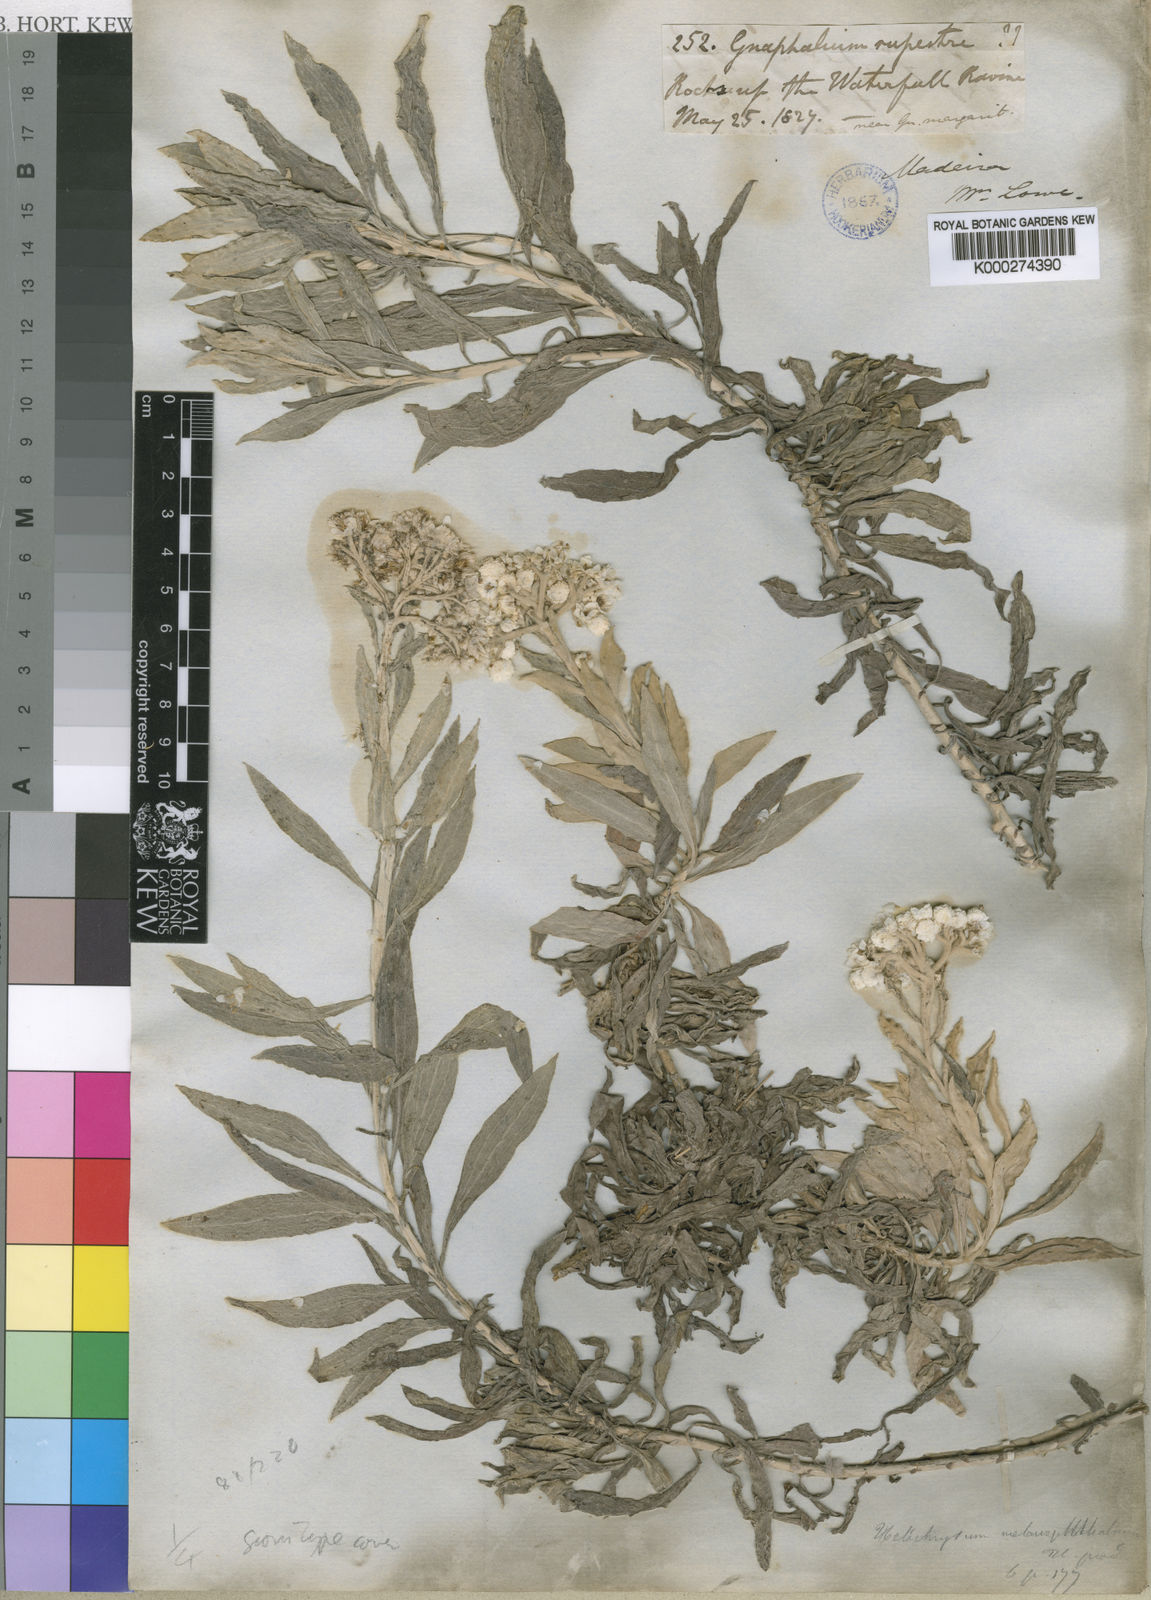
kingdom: Plantae
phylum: Tracheophyta
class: Magnoliopsida
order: Asterales
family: Asteraceae
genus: Helichrysum
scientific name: Helichrysum
